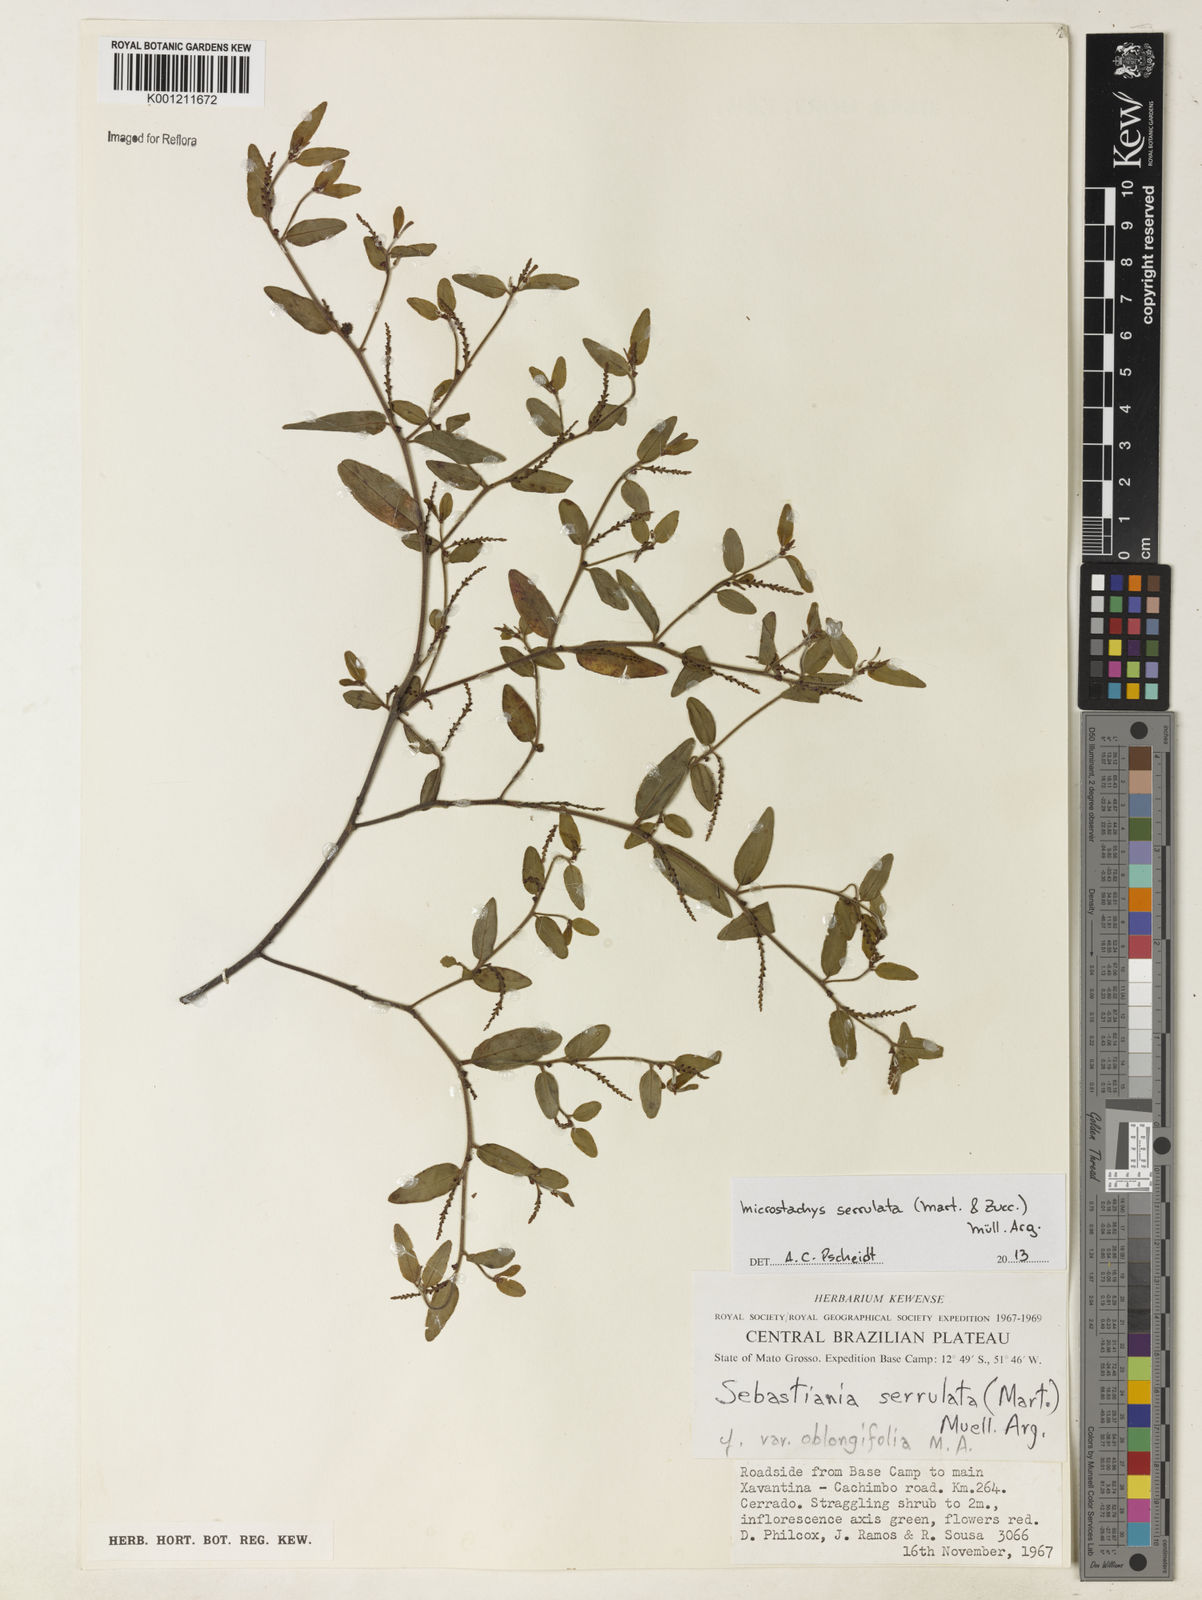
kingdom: Plantae
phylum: Tracheophyta
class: Magnoliopsida
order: Malpighiales
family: Euphorbiaceae
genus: Microstachys
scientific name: Microstachys
